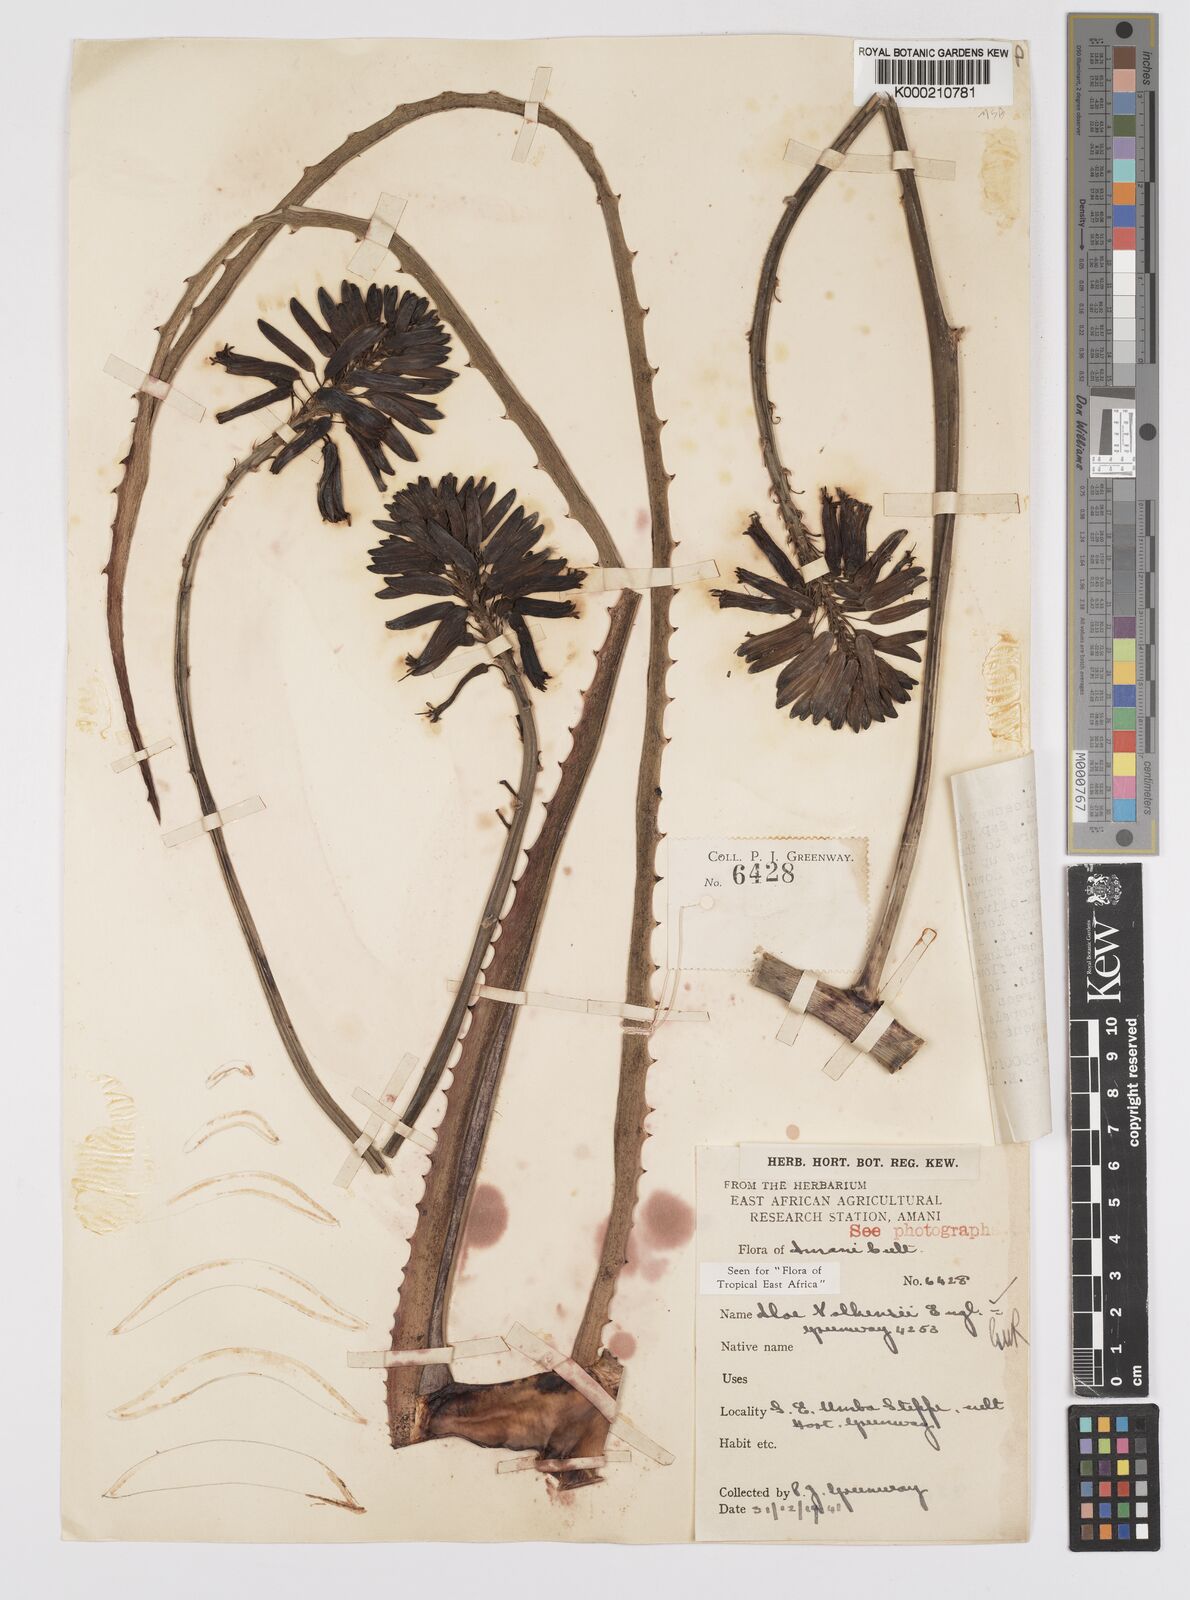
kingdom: Plantae
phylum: Tracheophyta
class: Liliopsida
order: Asparagales
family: Asphodelaceae
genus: Aloe
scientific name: Aloe volkensii
